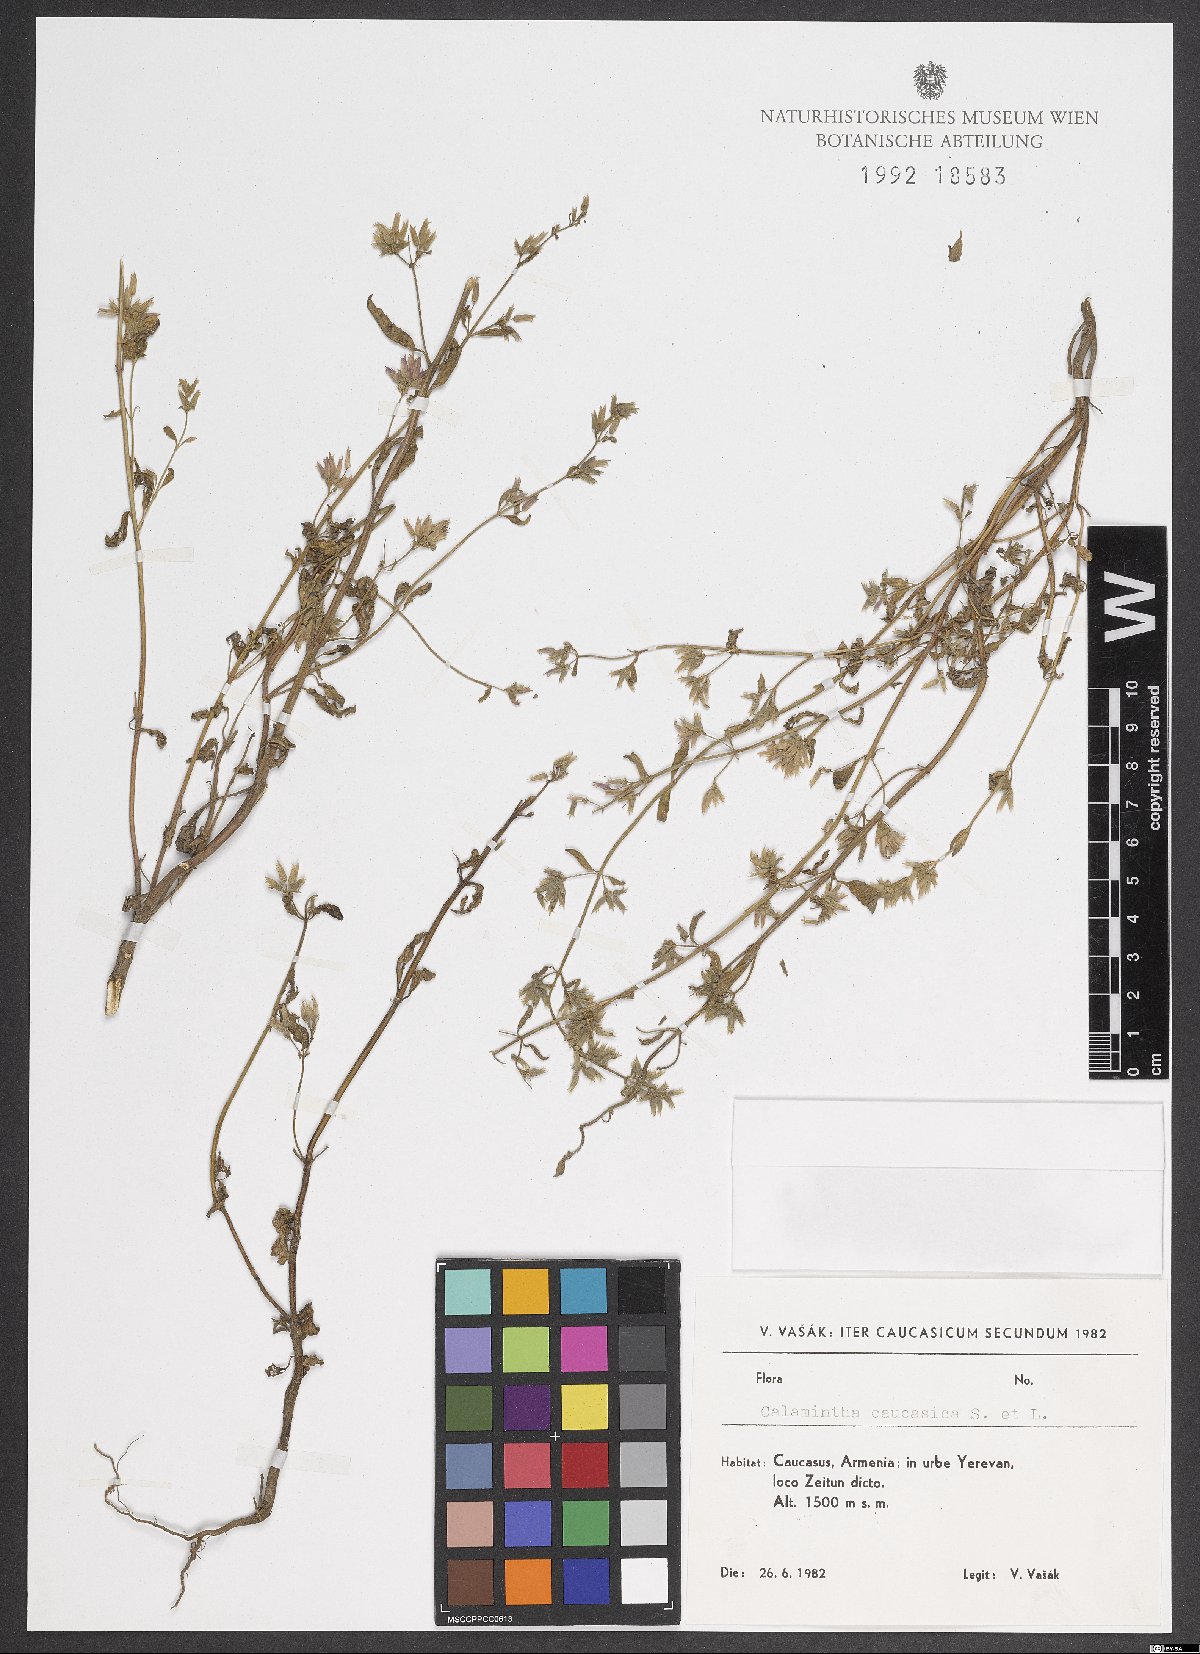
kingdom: Plantae
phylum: Tracheophyta
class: Magnoliopsida
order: Lamiales
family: Lamiaceae
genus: Calamintha
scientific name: Calamintha
